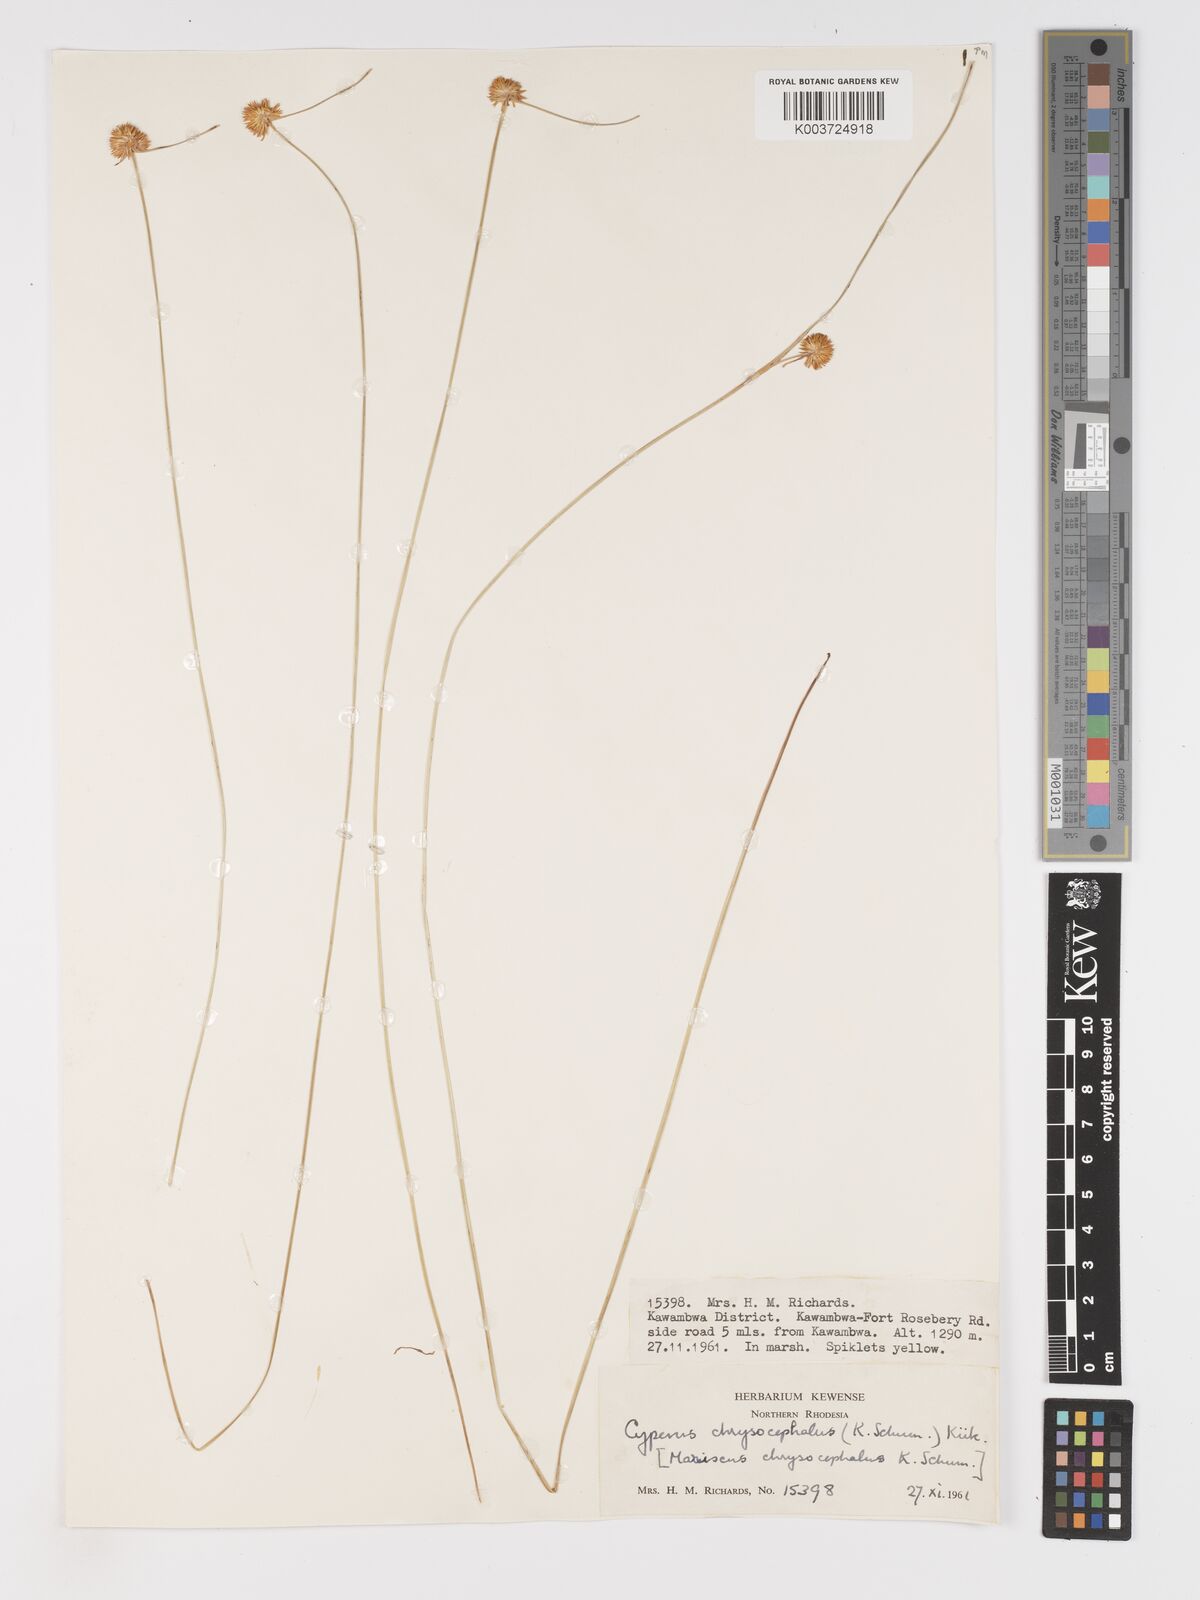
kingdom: Plantae
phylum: Tracheophyta
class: Liliopsida
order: Poales
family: Cyperaceae
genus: Cyperus
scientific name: Cyperus chrysocephalus
